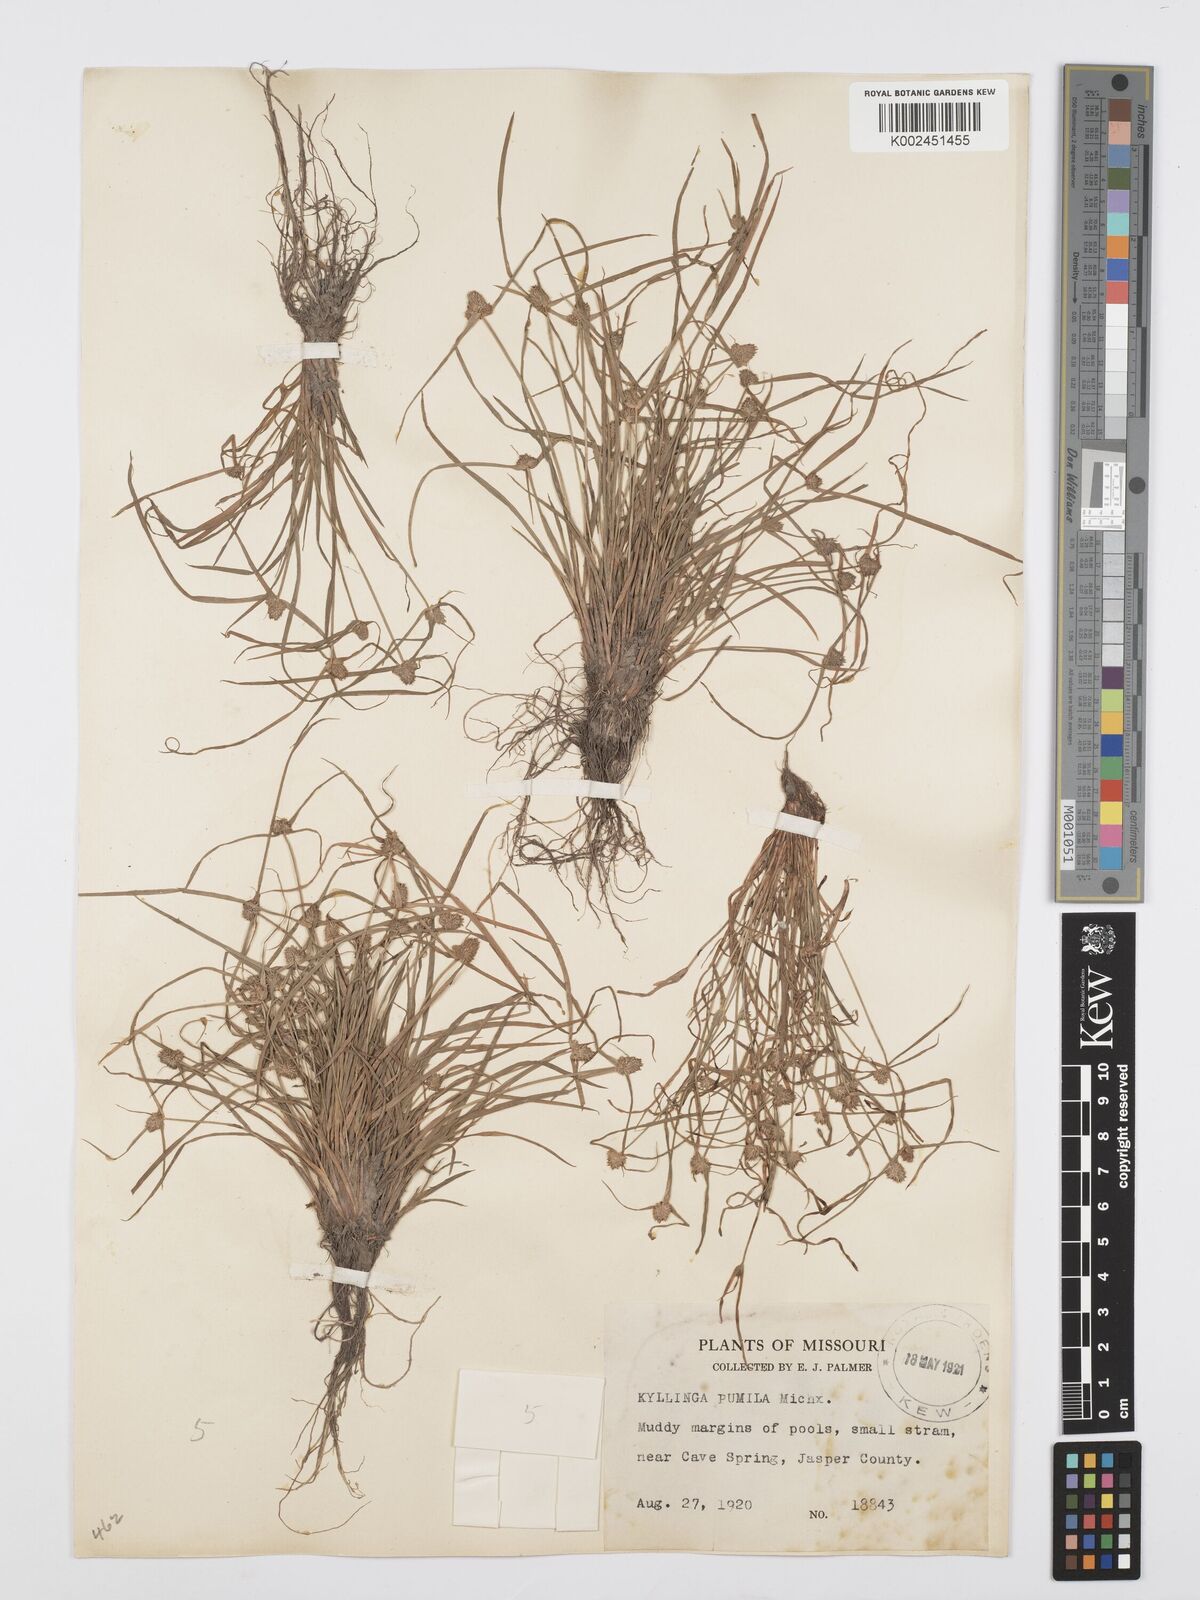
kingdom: Plantae
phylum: Tracheophyta
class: Liliopsida
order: Poales
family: Cyperaceae
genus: Cyperus
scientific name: Cyperus
